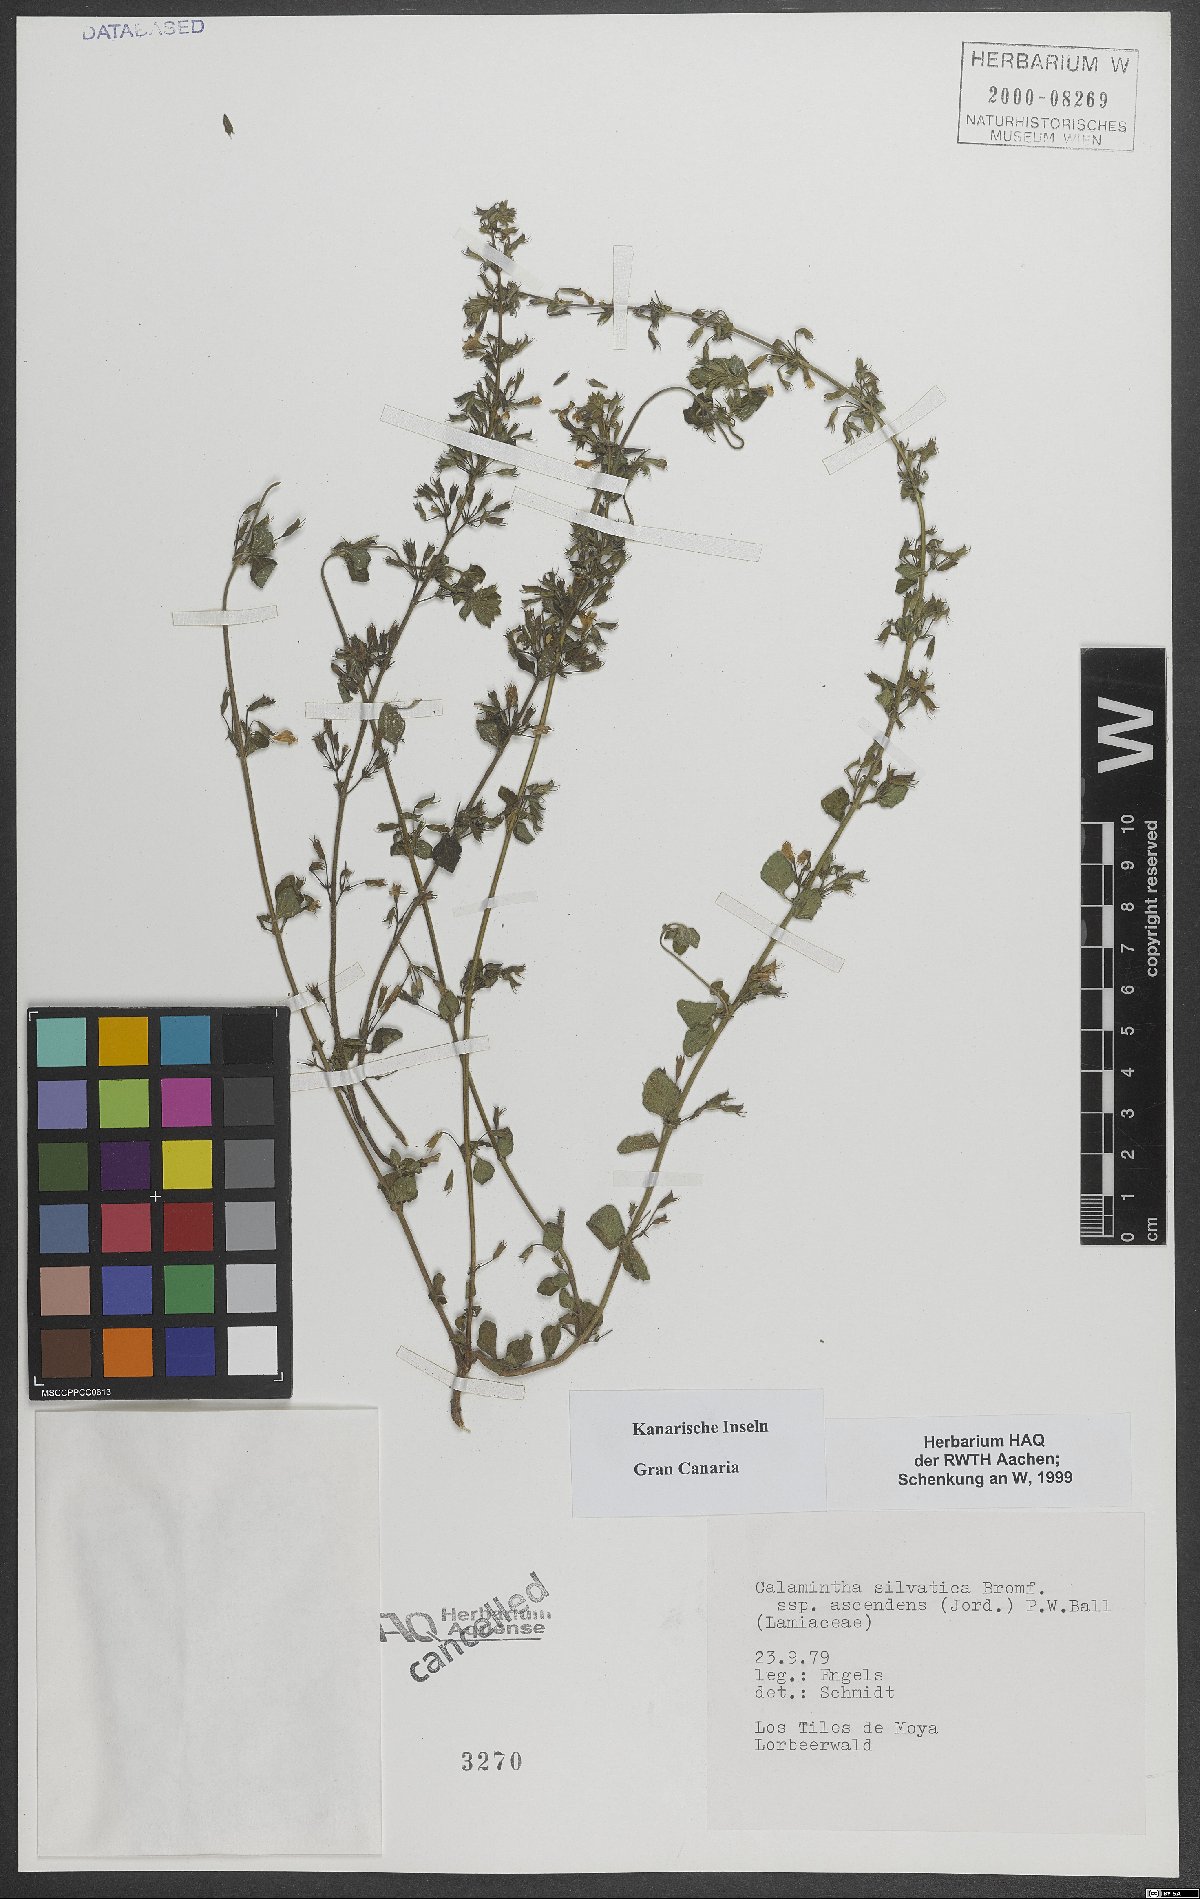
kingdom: Plantae
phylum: Tracheophyta
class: Magnoliopsida
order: Lamiales
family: Lamiaceae
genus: Clinopodium
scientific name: Clinopodium menthifolium
